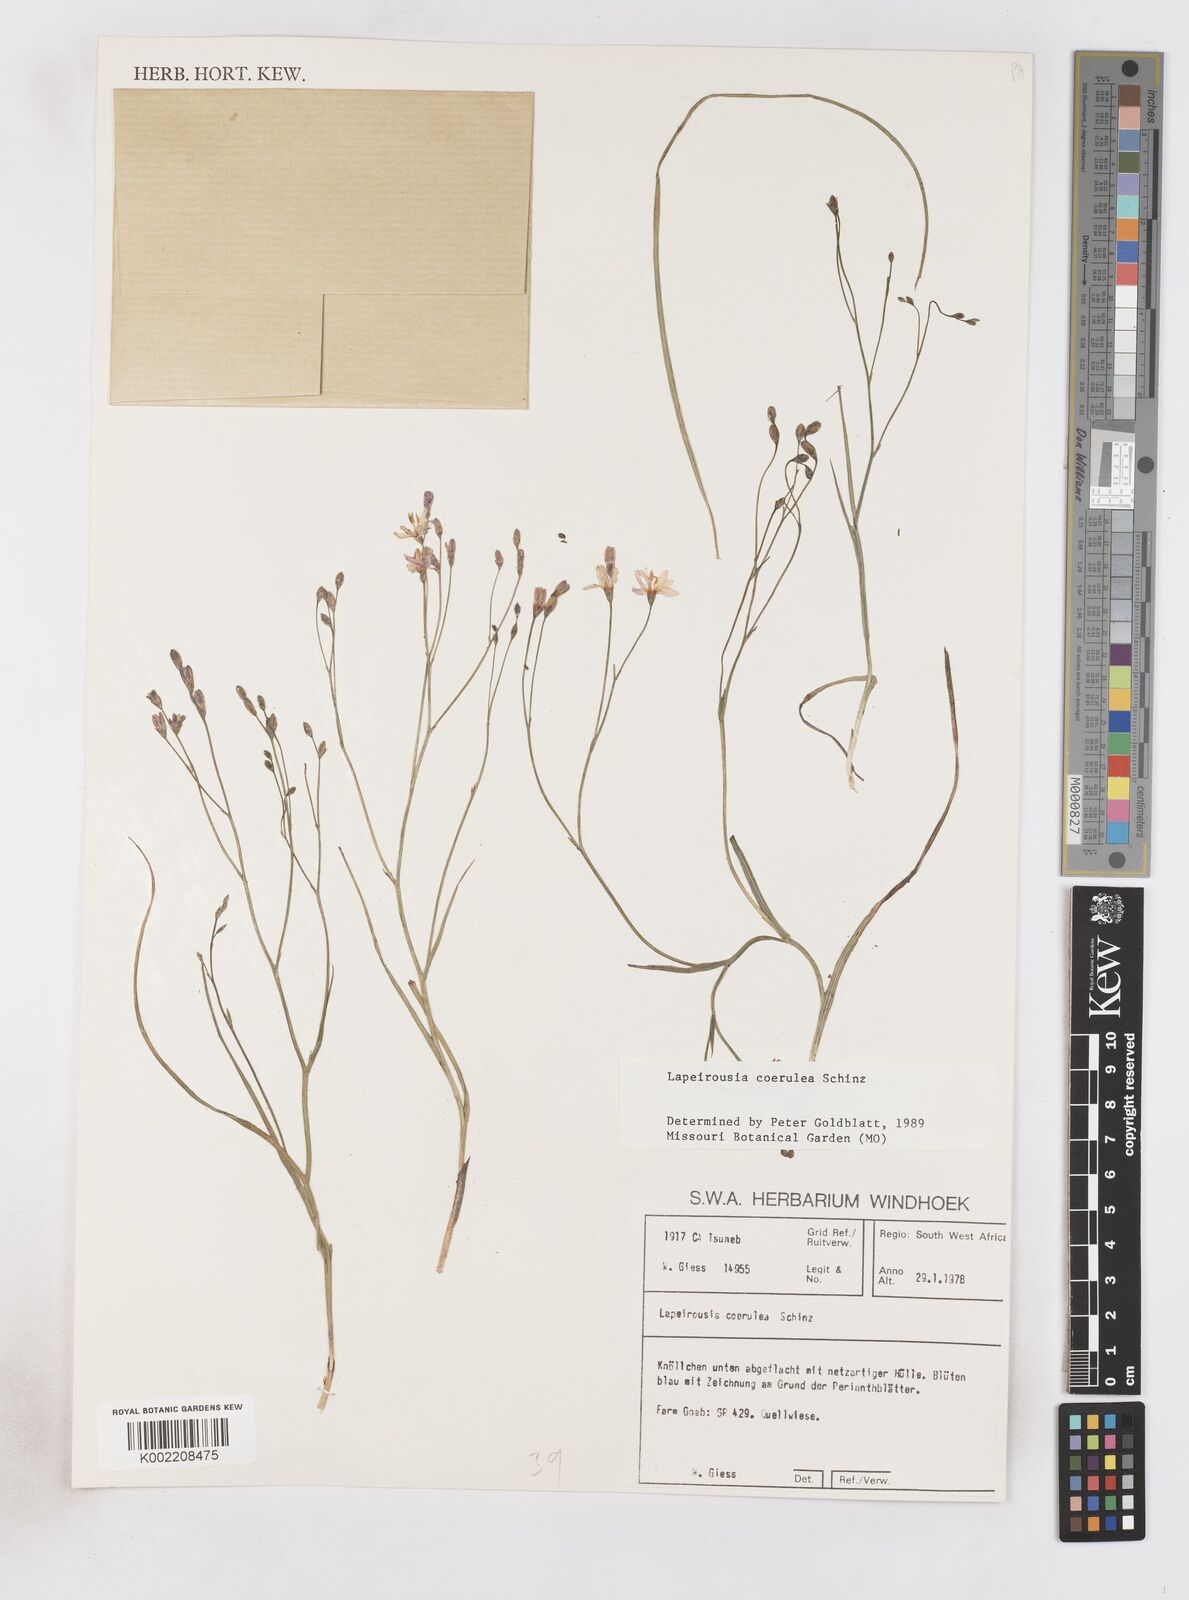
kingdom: Plantae
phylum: Tracheophyta
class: Liliopsida
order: Asparagales
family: Iridaceae
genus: Afrosolen
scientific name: Afrosolen coeruleus
